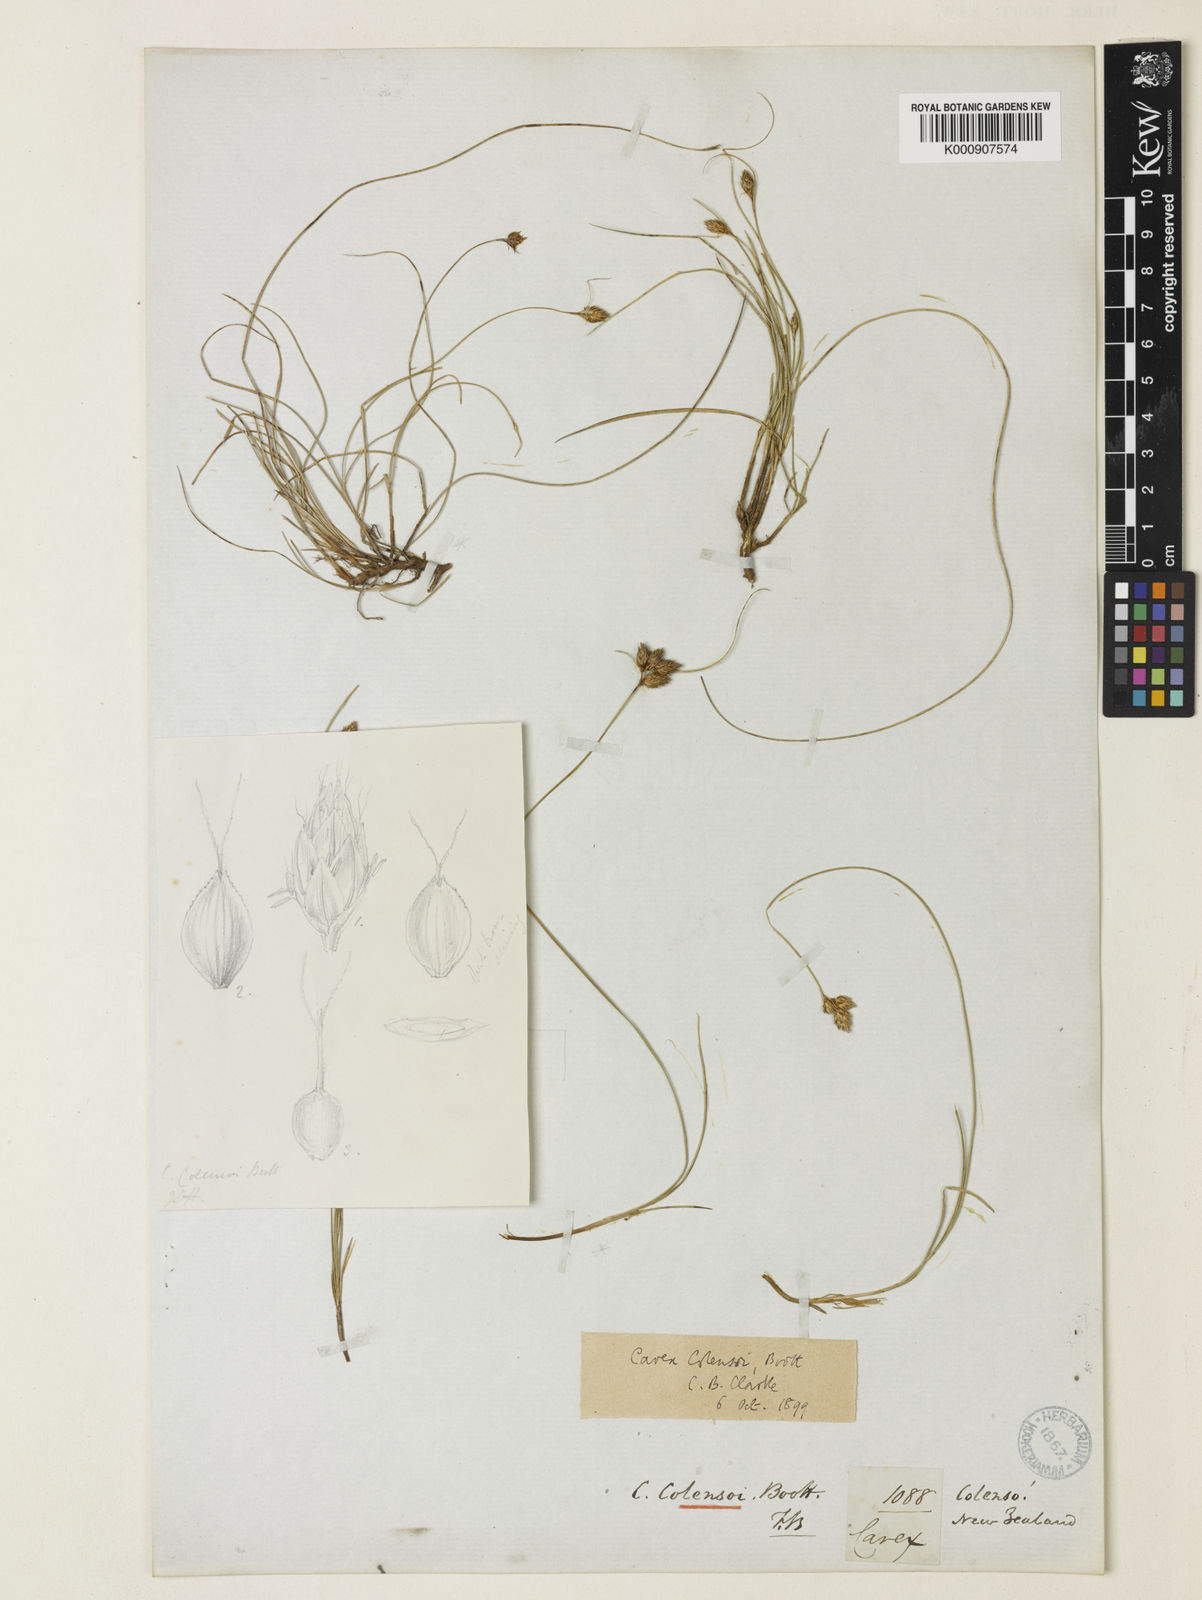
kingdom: Plantae
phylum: Tracheophyta
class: Liliopsida
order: Poales
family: Cyperaceae
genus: Carex
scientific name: Carex colensoi
